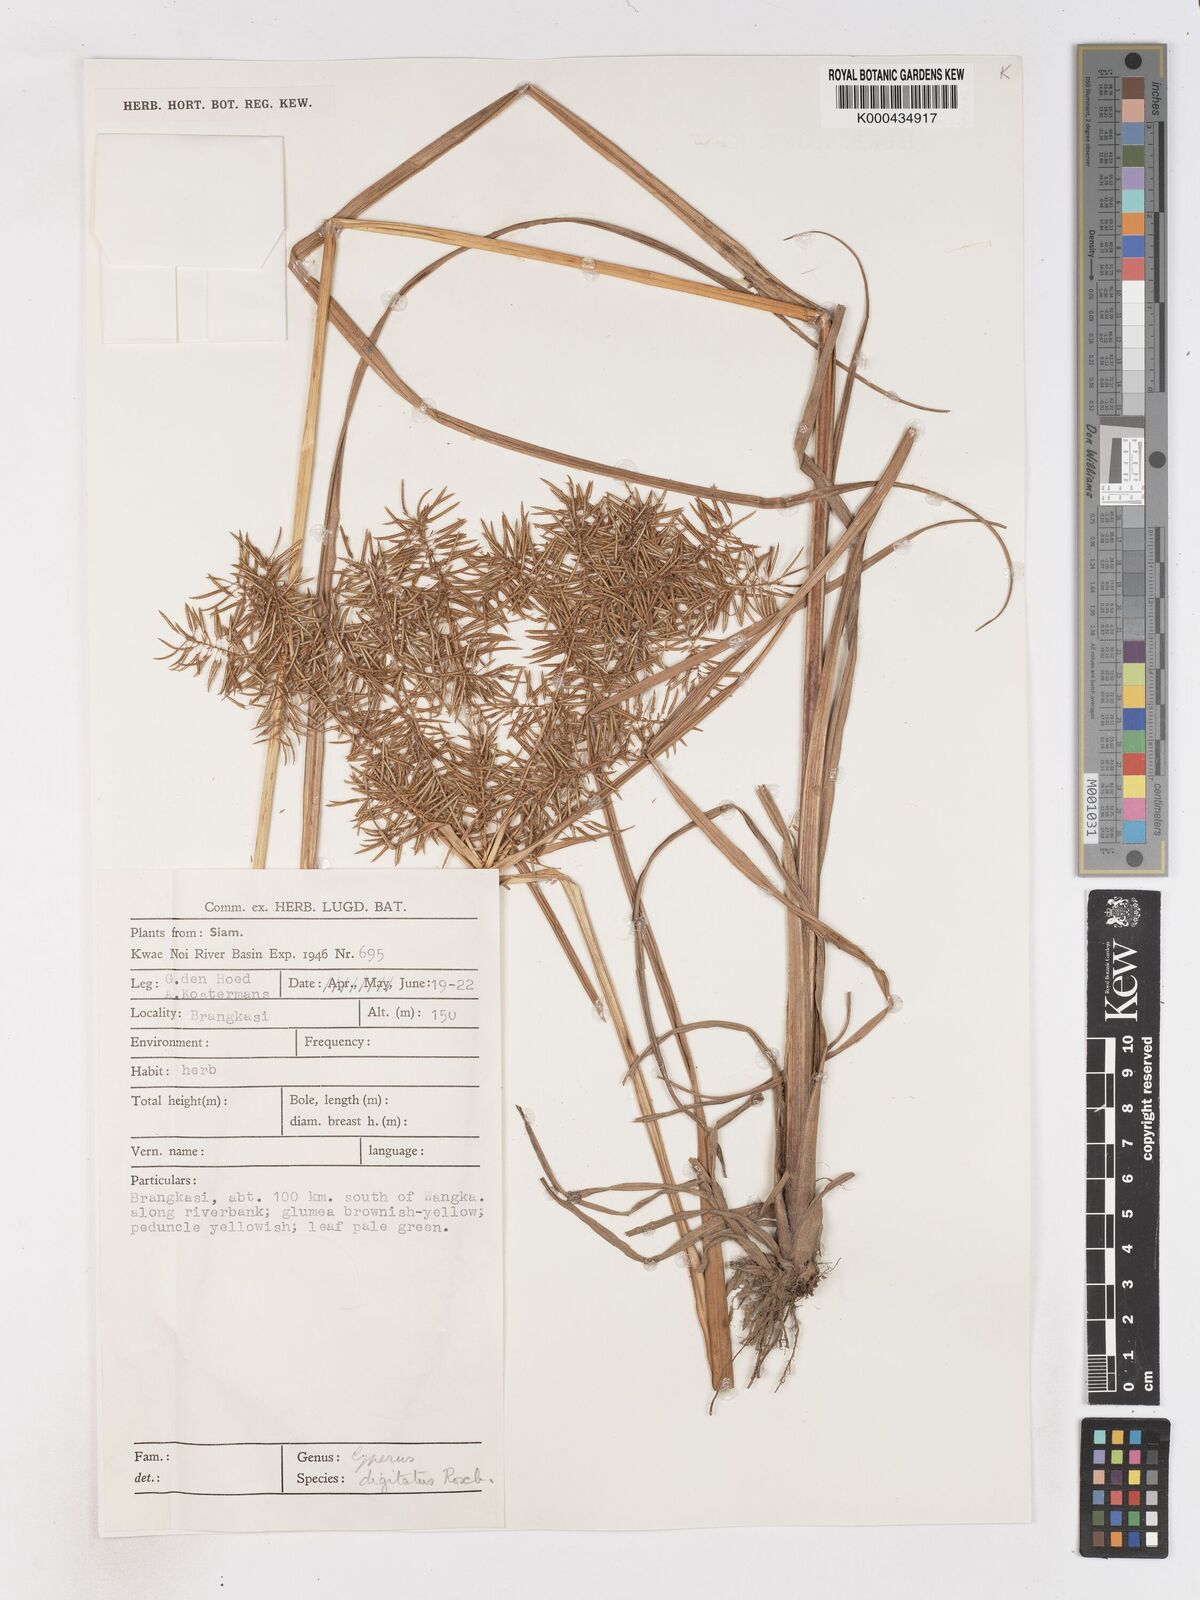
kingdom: Plantae
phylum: Tracheophyta
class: Liliopsida
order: Poales
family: Cyperaceae
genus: Cyperus
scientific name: Cyperus digitatus
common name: Finger flatsedge
